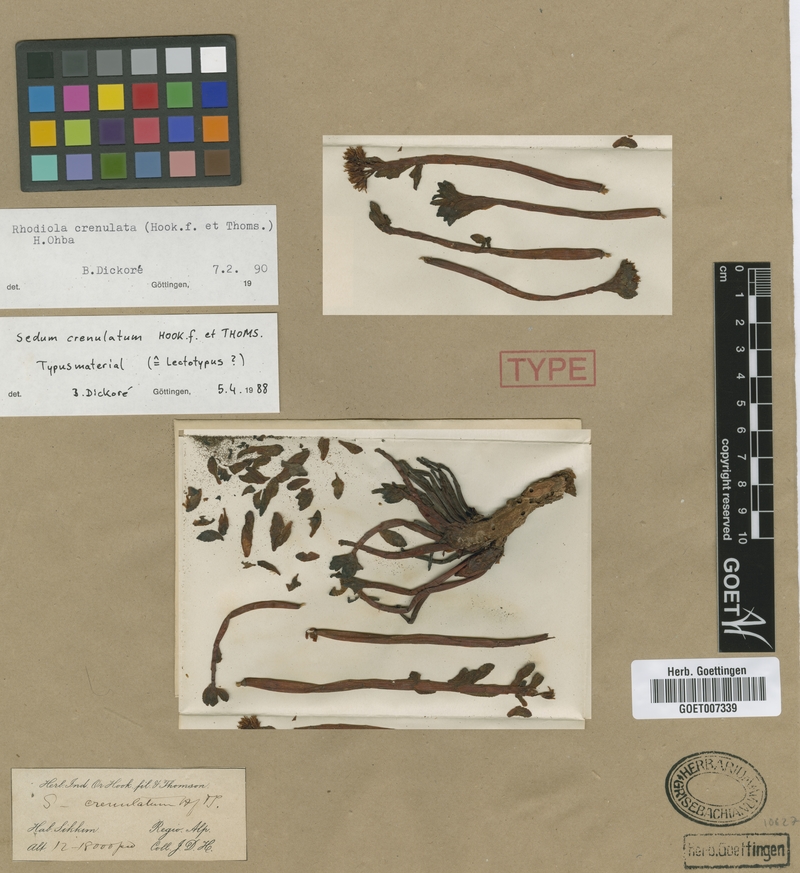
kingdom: Plantae
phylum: Tracheophyta
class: Magnoliopsida
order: Saxifragales
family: Crassulaceae
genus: Rhodiola
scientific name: Rhodiola crenulata
